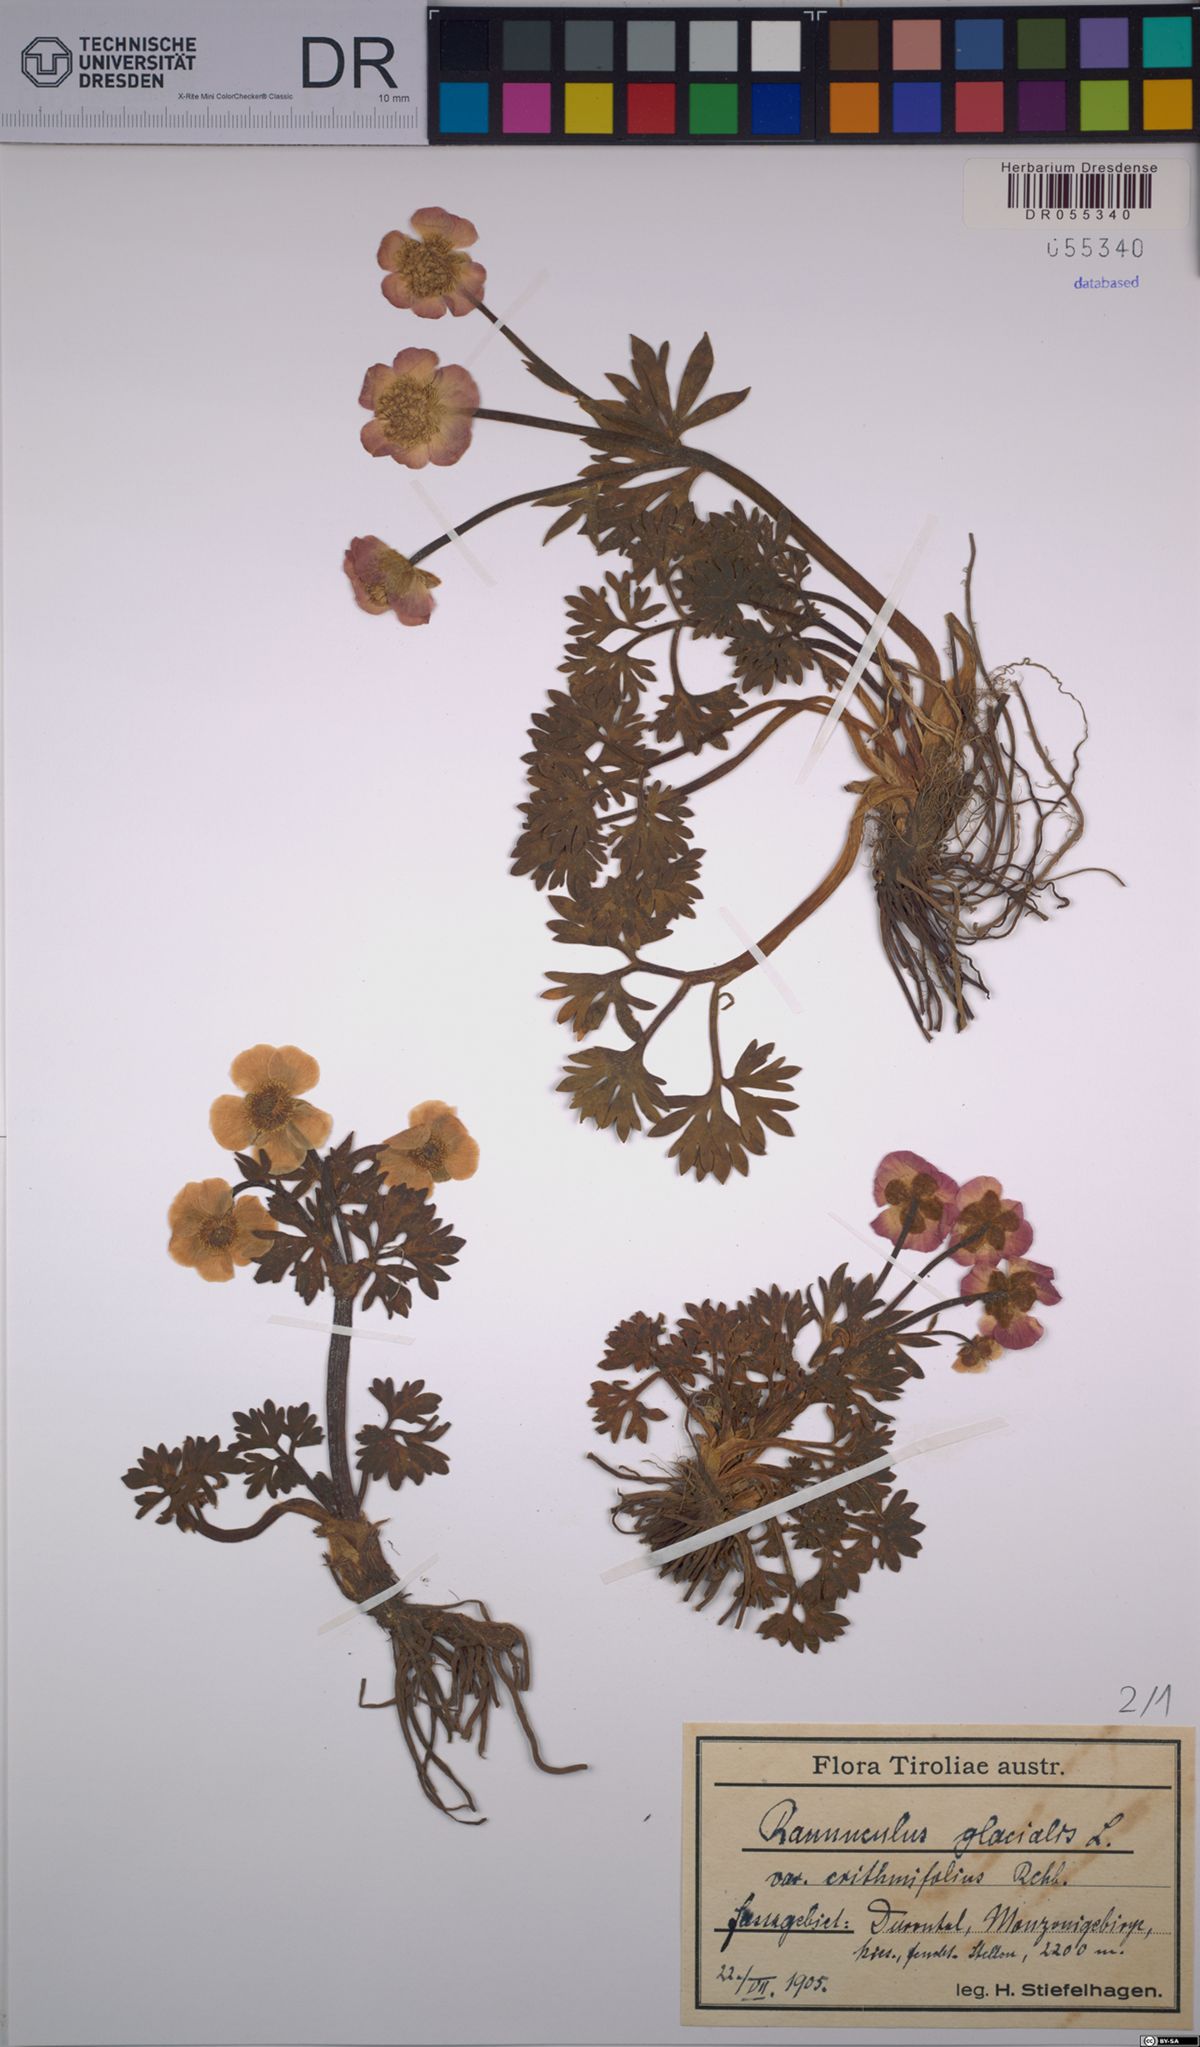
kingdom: Plantae
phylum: Tracheophyta
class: Magnoliopsida
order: Ranunculales
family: Ranunculaceae
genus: Ranunculus
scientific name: Ranunculus glacialis
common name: Glacier buttercup
